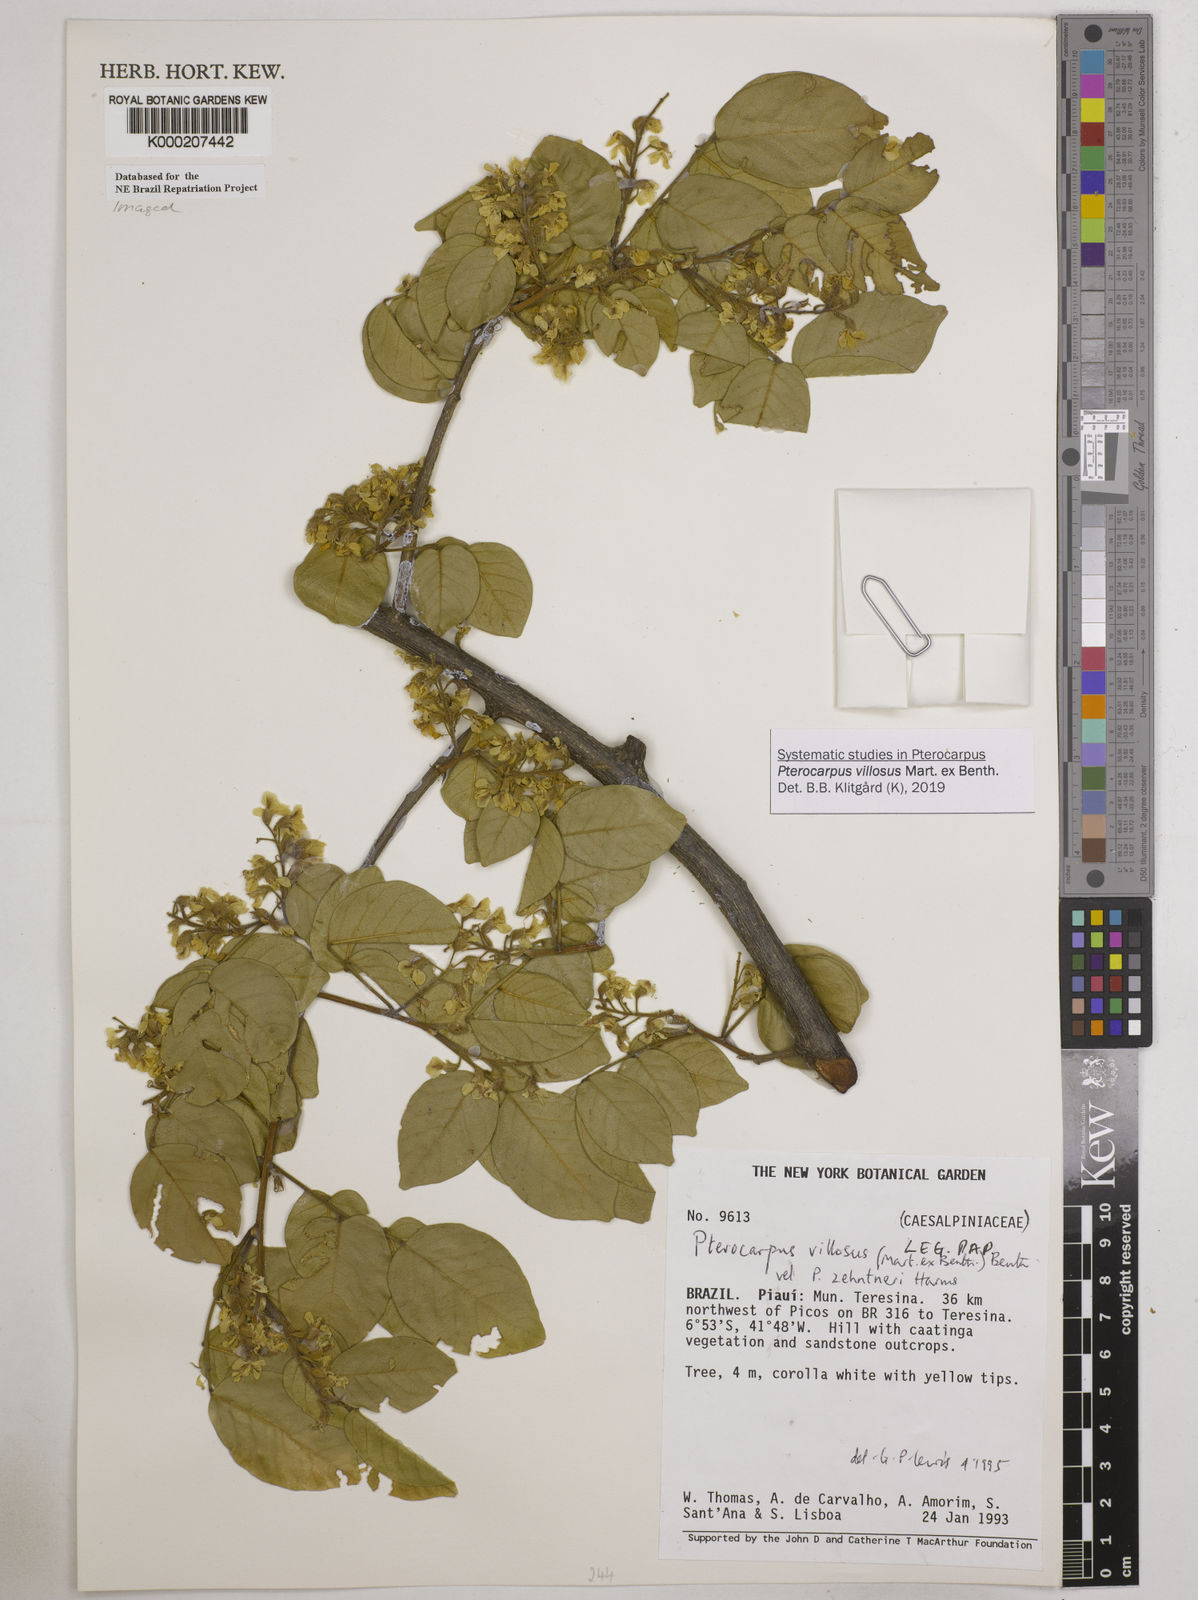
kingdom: Plantae
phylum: Tracheophyta
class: Magnoliopsida
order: Fabales
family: Fabaceae
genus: Pterocarpus
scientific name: Pterocarpus villosus
